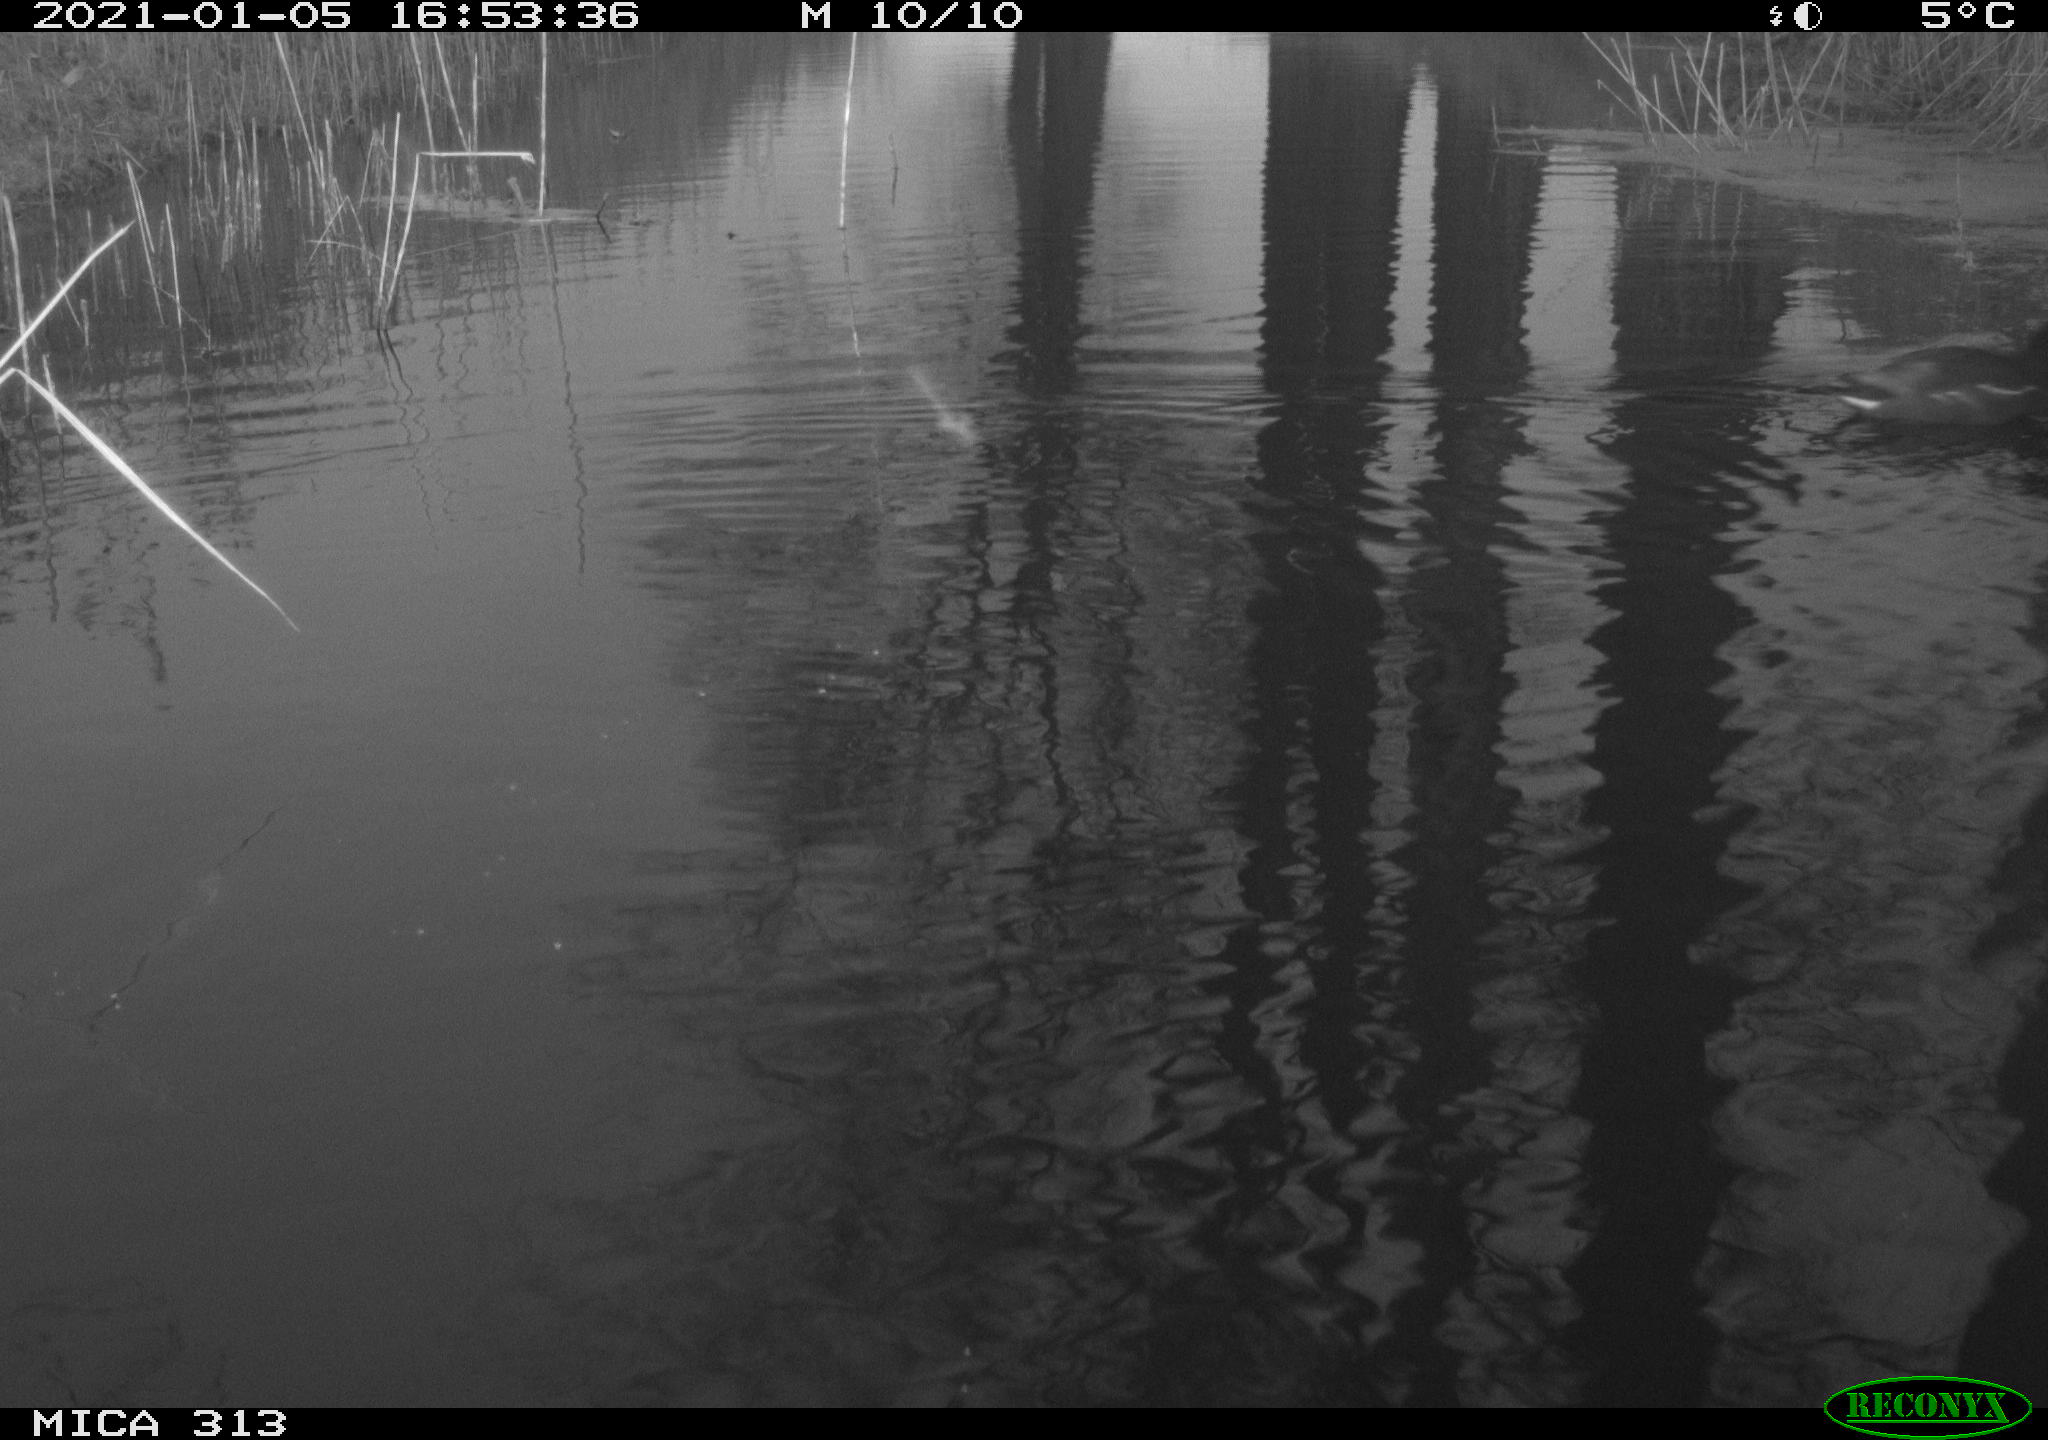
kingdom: Animalia
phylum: Chordata
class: Aves
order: Gruiformes
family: Rallidae
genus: Gallinula
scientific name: Gallinula chloropus
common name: Common moorhen
